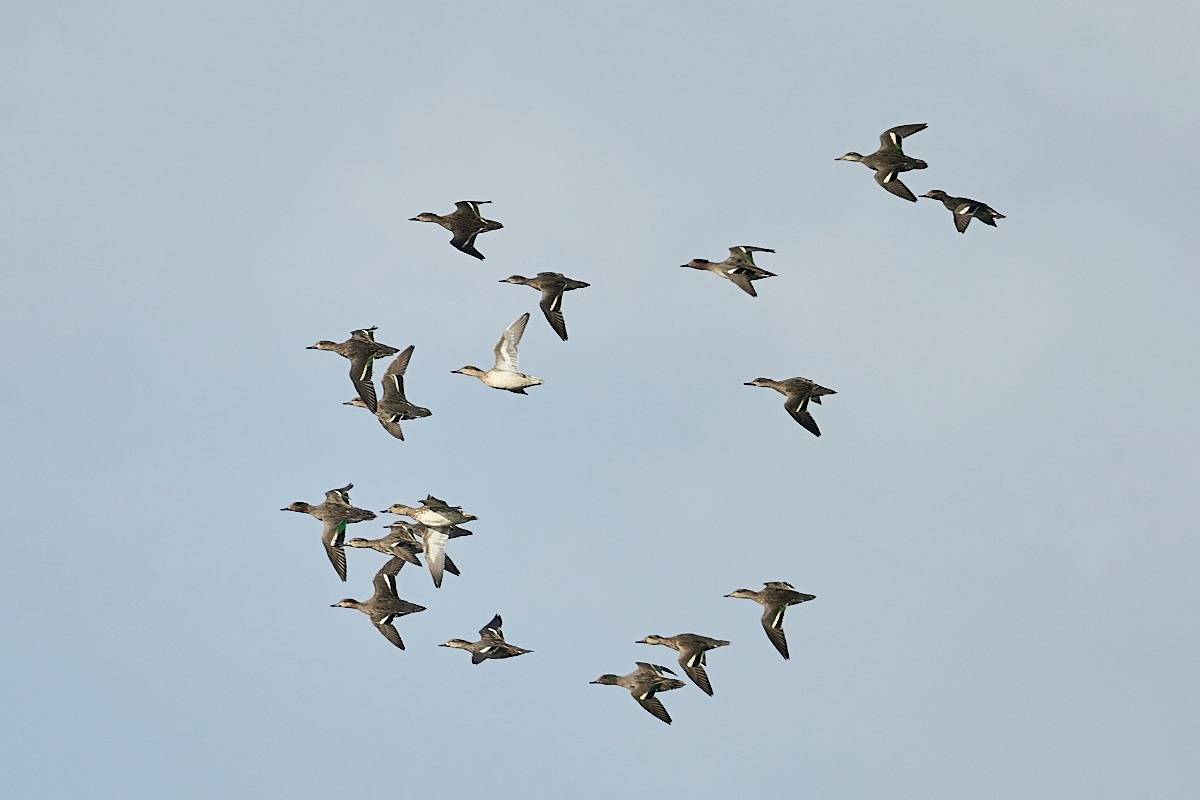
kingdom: Animalia
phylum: Chordata
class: Aves
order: Anseriformes
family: Anatidae
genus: Anas
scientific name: Anas crecca
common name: Krikand
